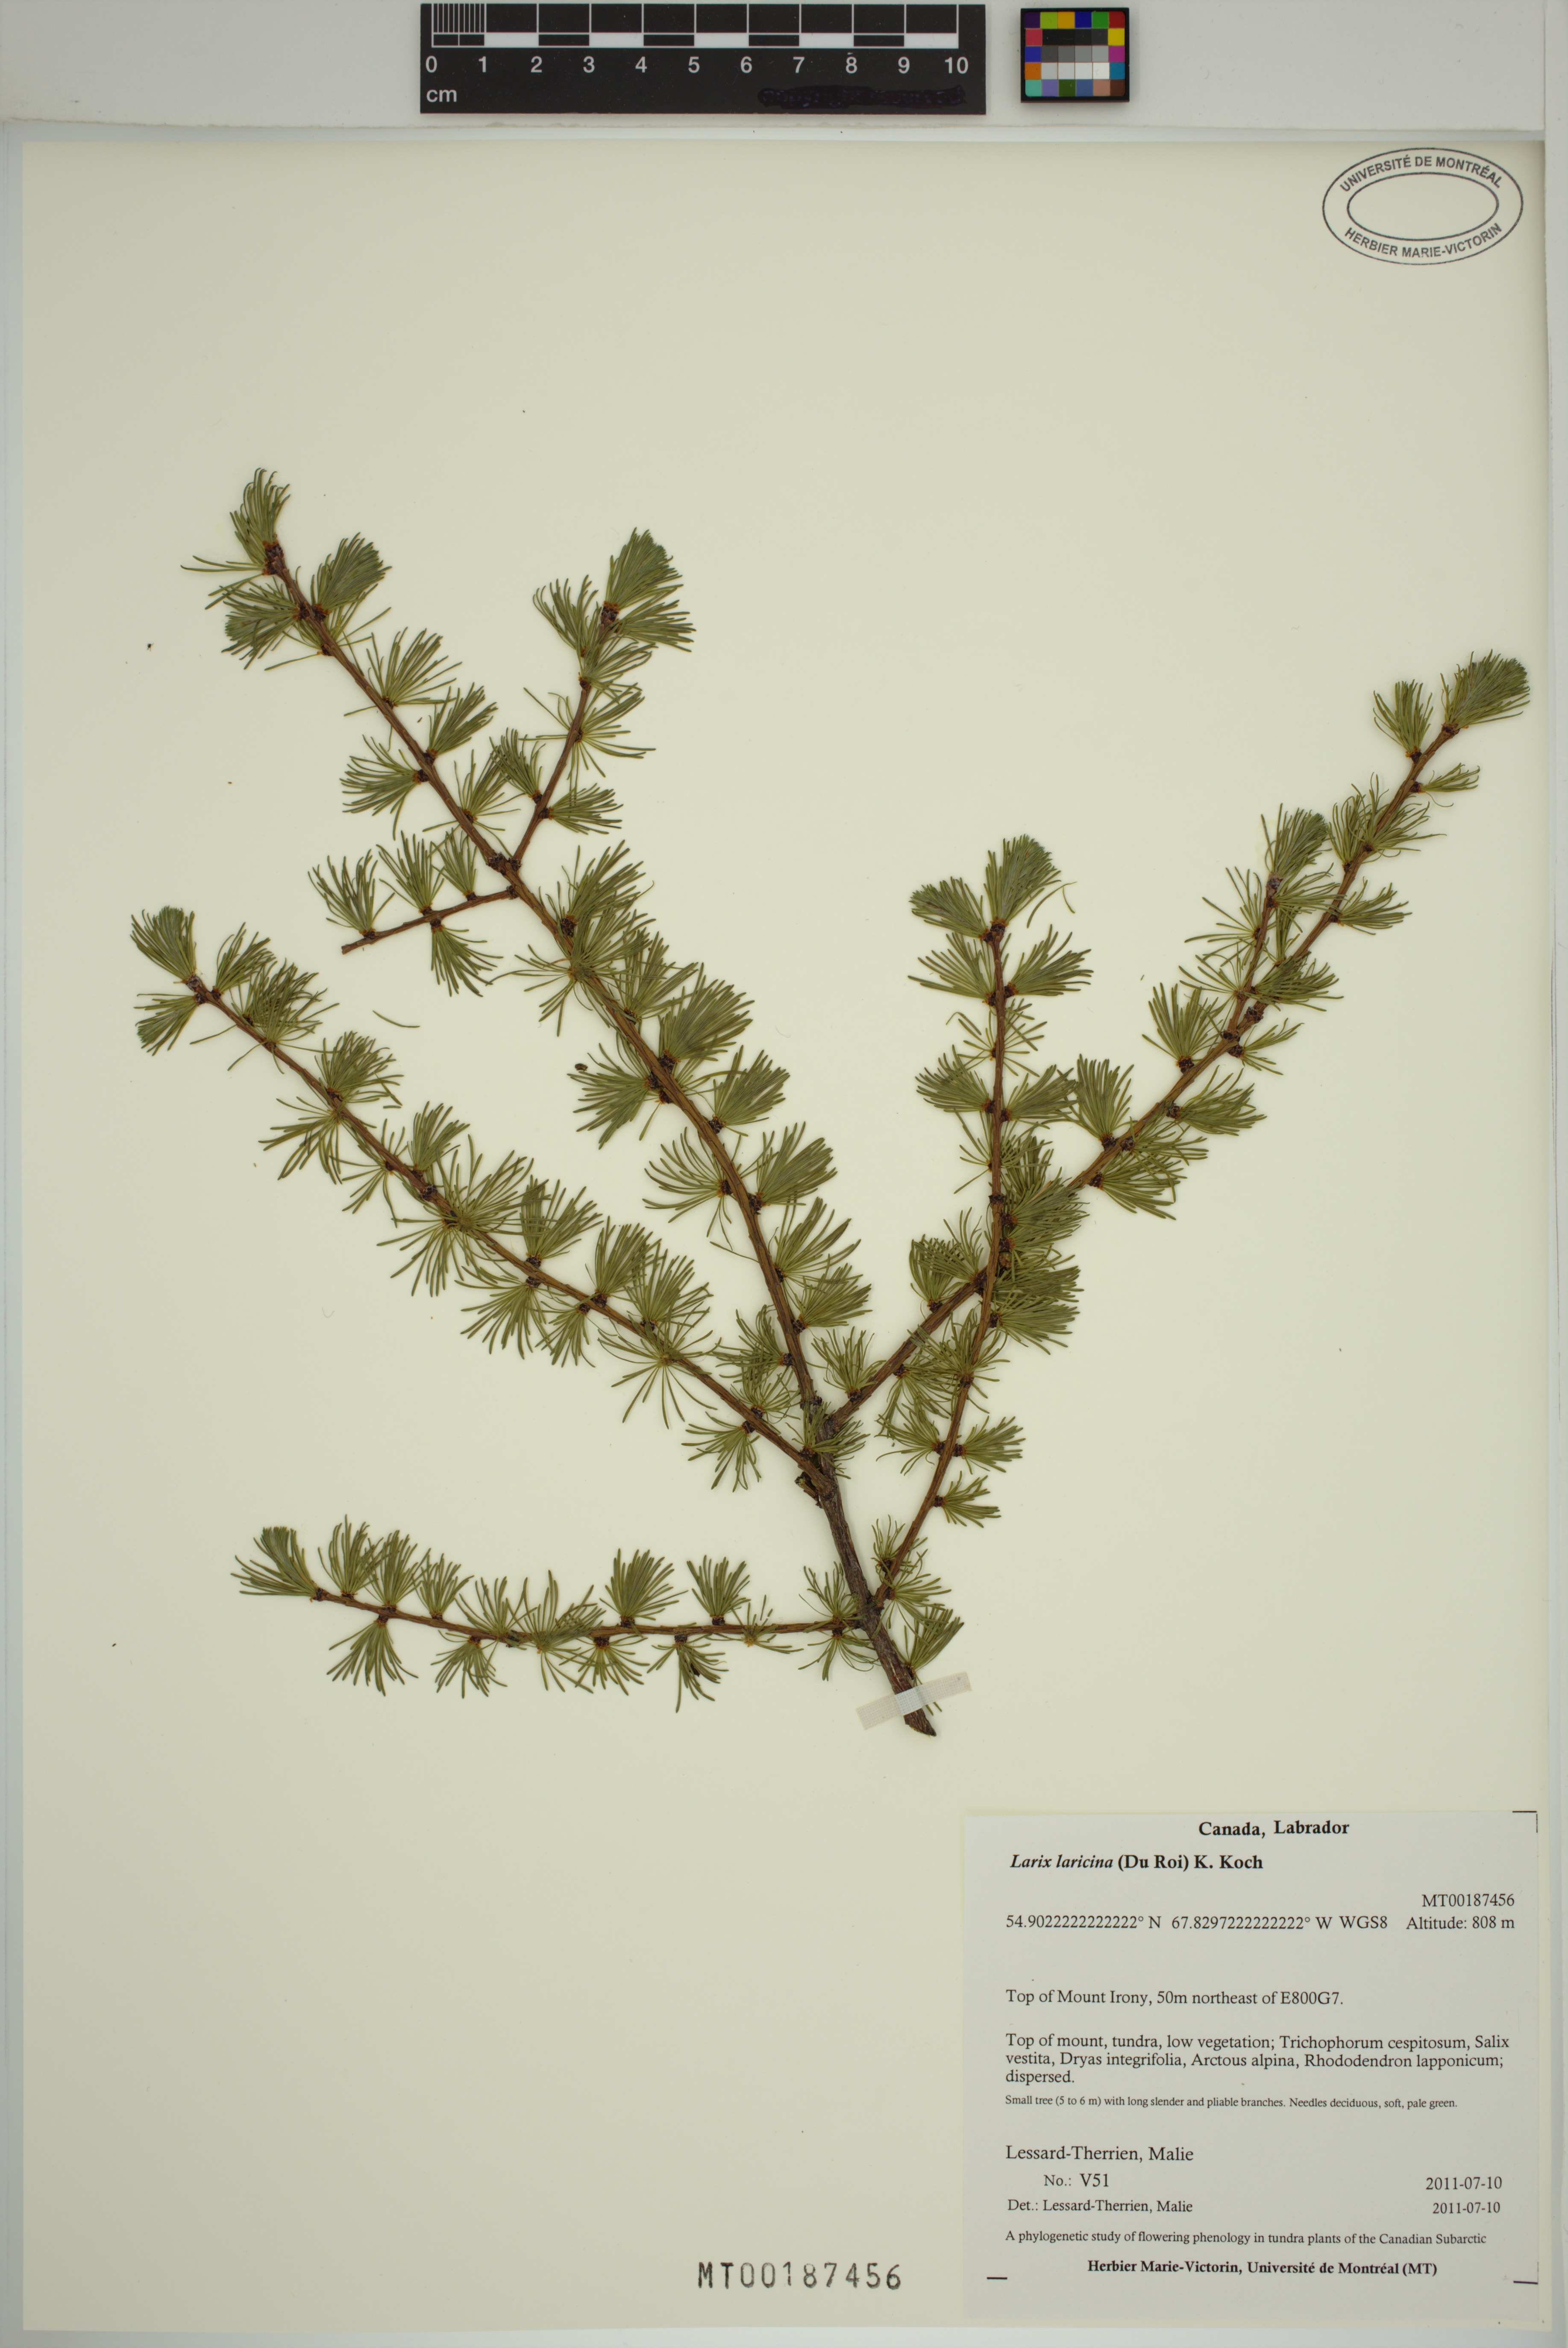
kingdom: Plantae
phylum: Tracheophyta
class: Pinopsida
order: Pinales
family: Pinaceae
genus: Larix
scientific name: Larix laricina
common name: American larch
